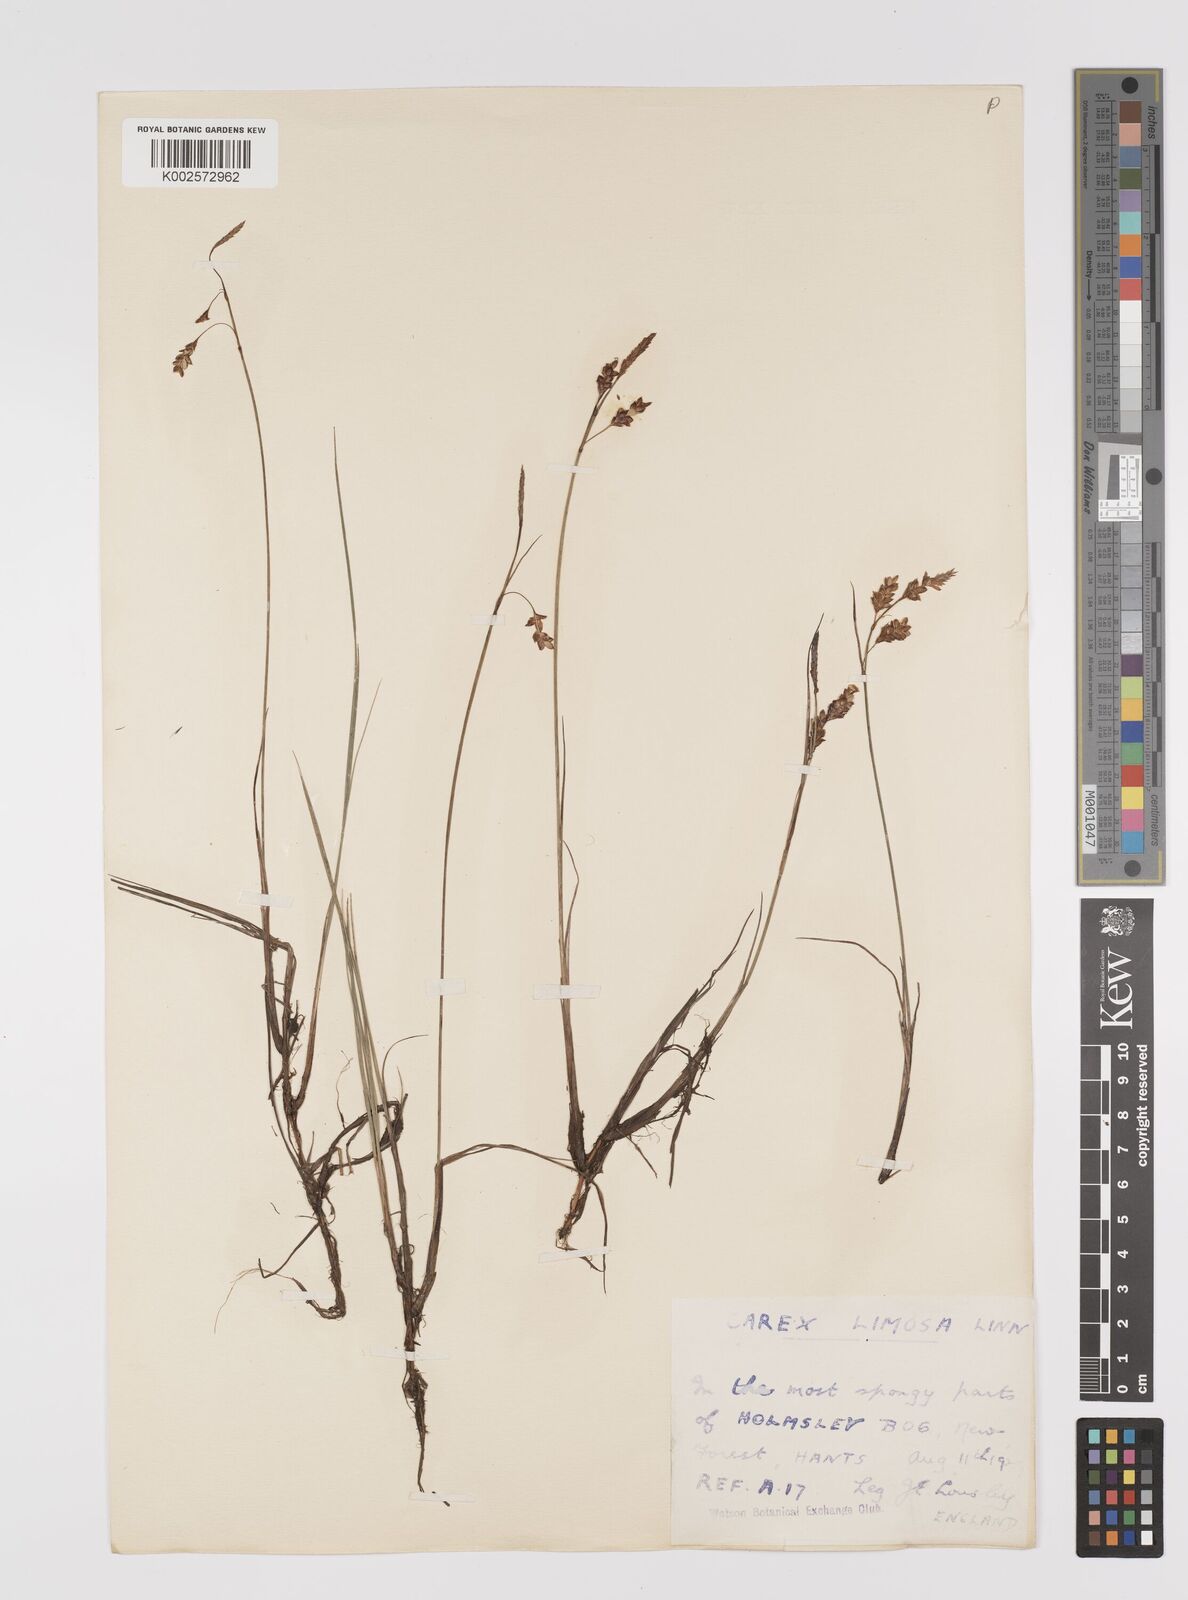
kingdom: Plantae
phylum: Tracheophyta
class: Liliopsida
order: Poales
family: Cyperaceae
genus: Carex
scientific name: Carex limosa
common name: Bog sedge
